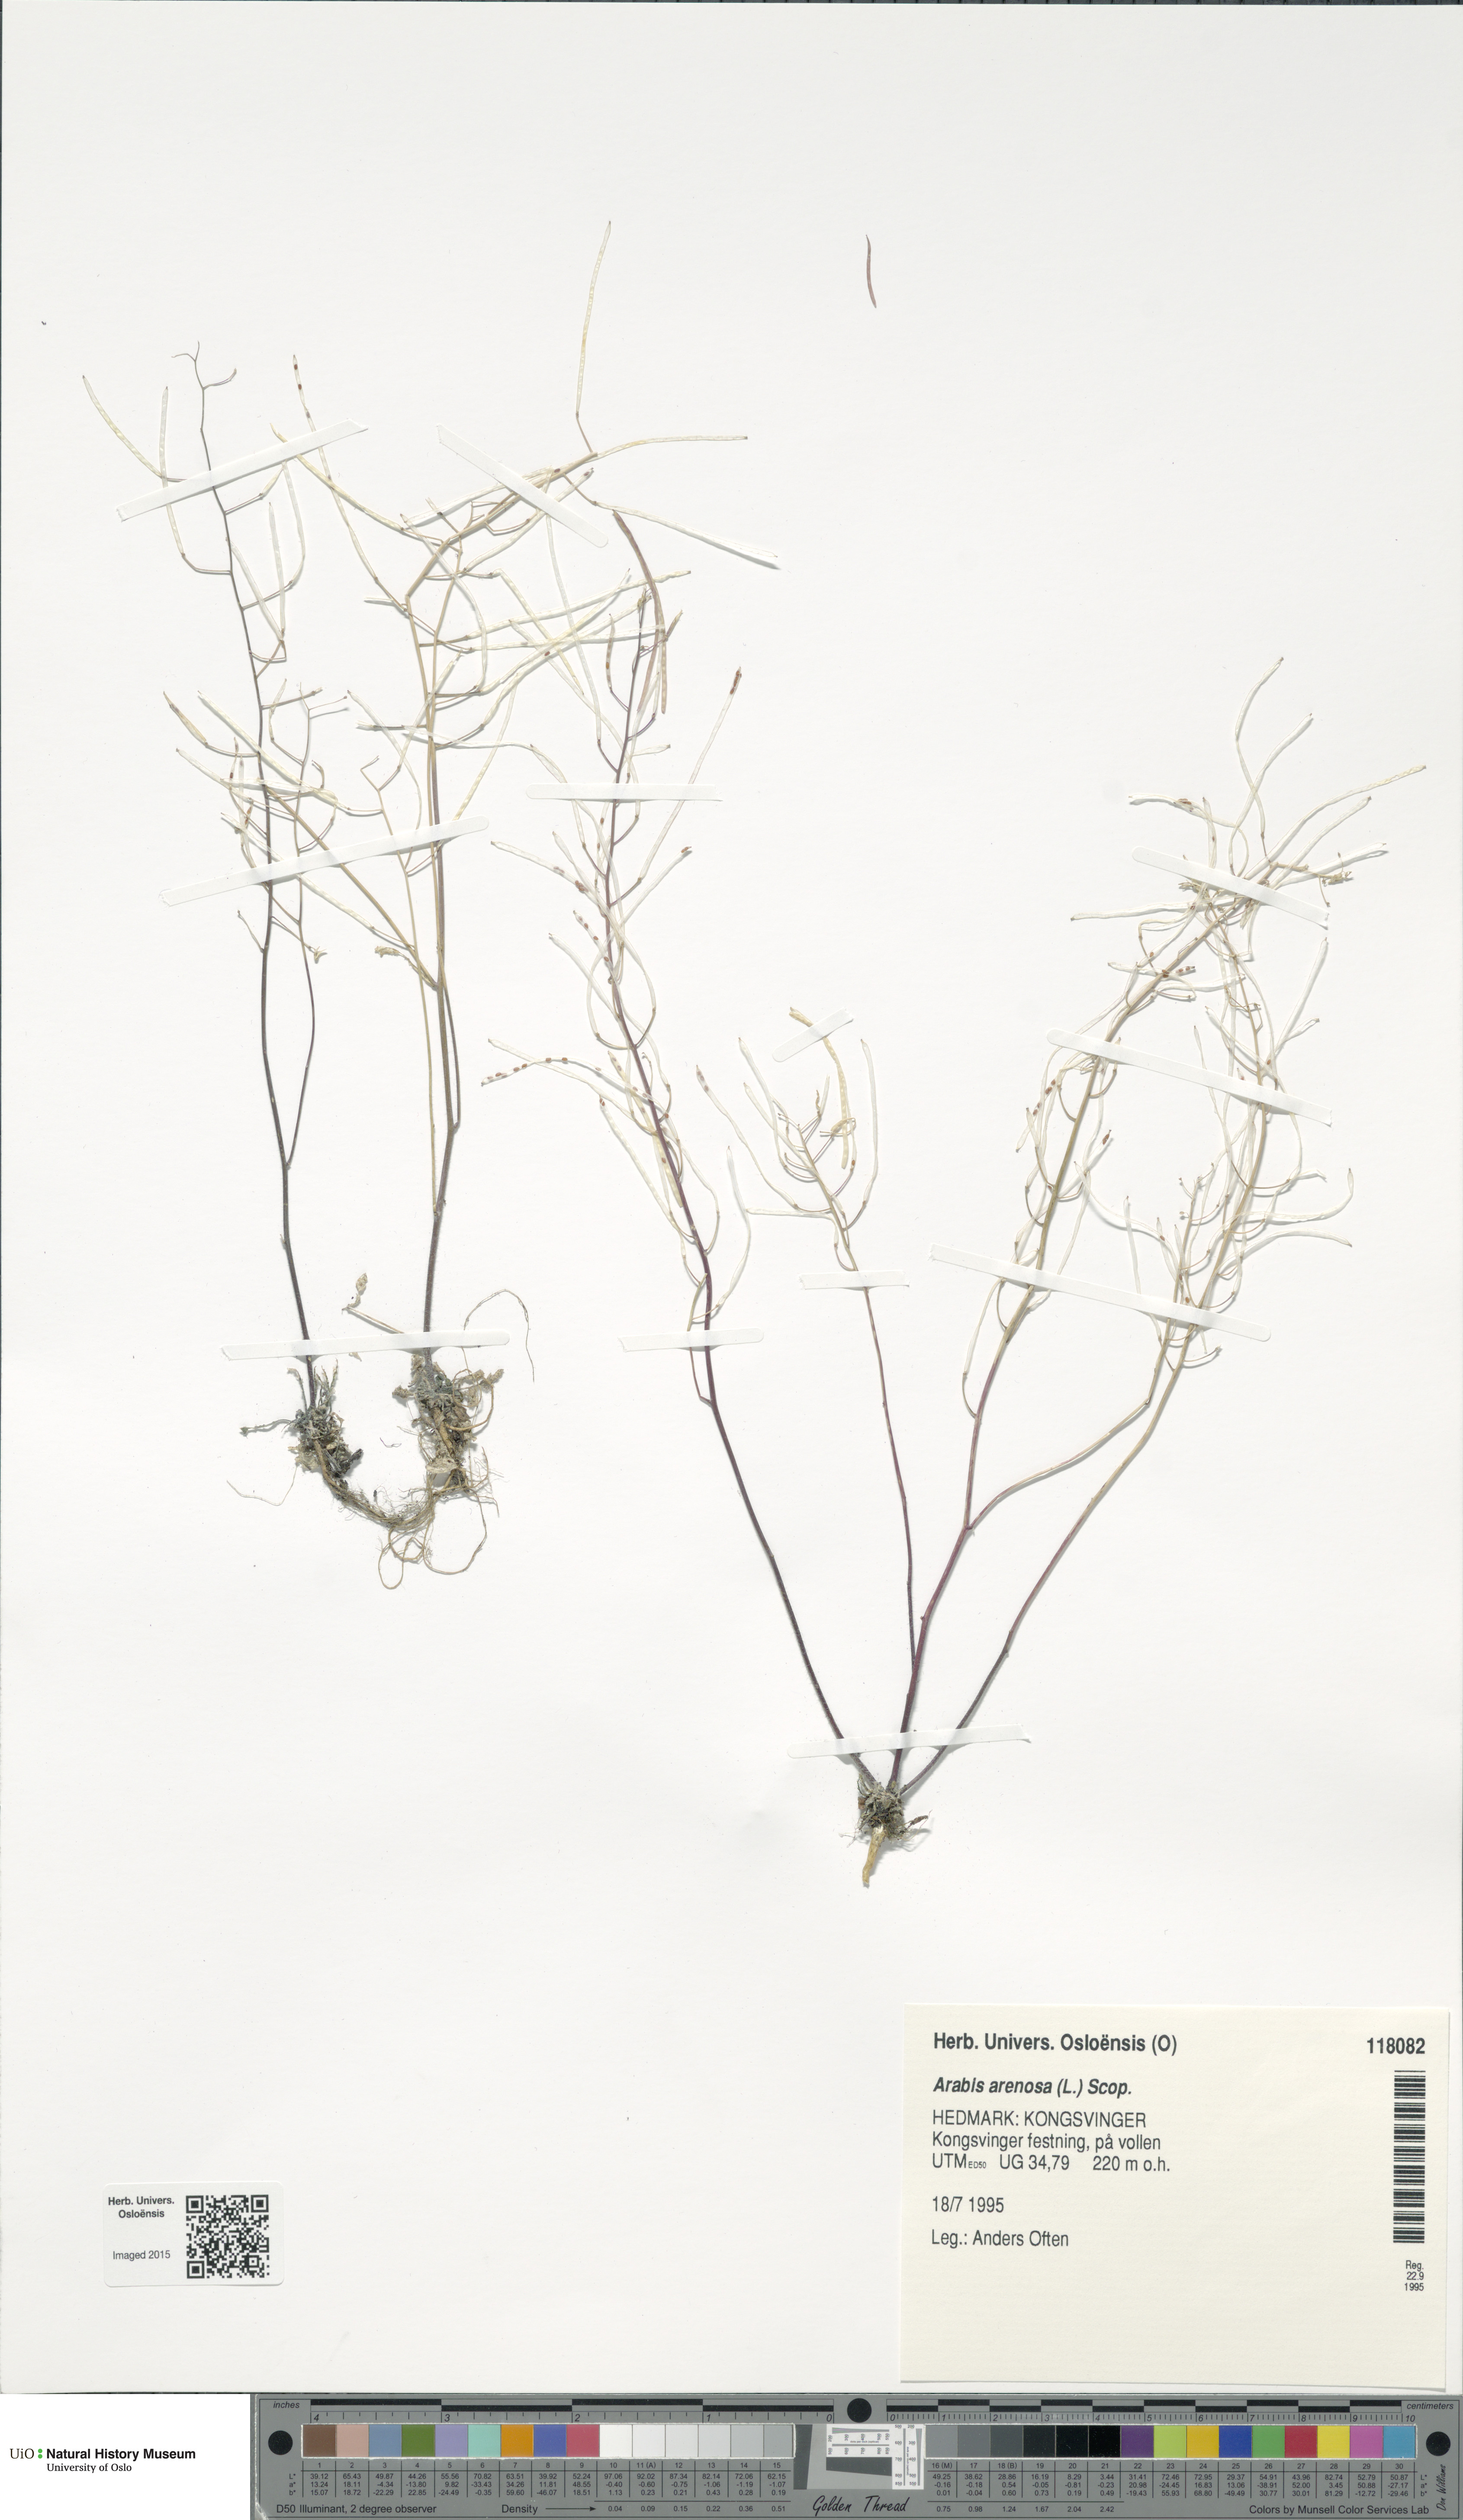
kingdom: Plantae
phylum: Tracheophyta
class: Magnoliopsida
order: Brassicales
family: Brassicaceae
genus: Arabidopsis
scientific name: Arabidopsis arenosa
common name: Sand rock-cress
